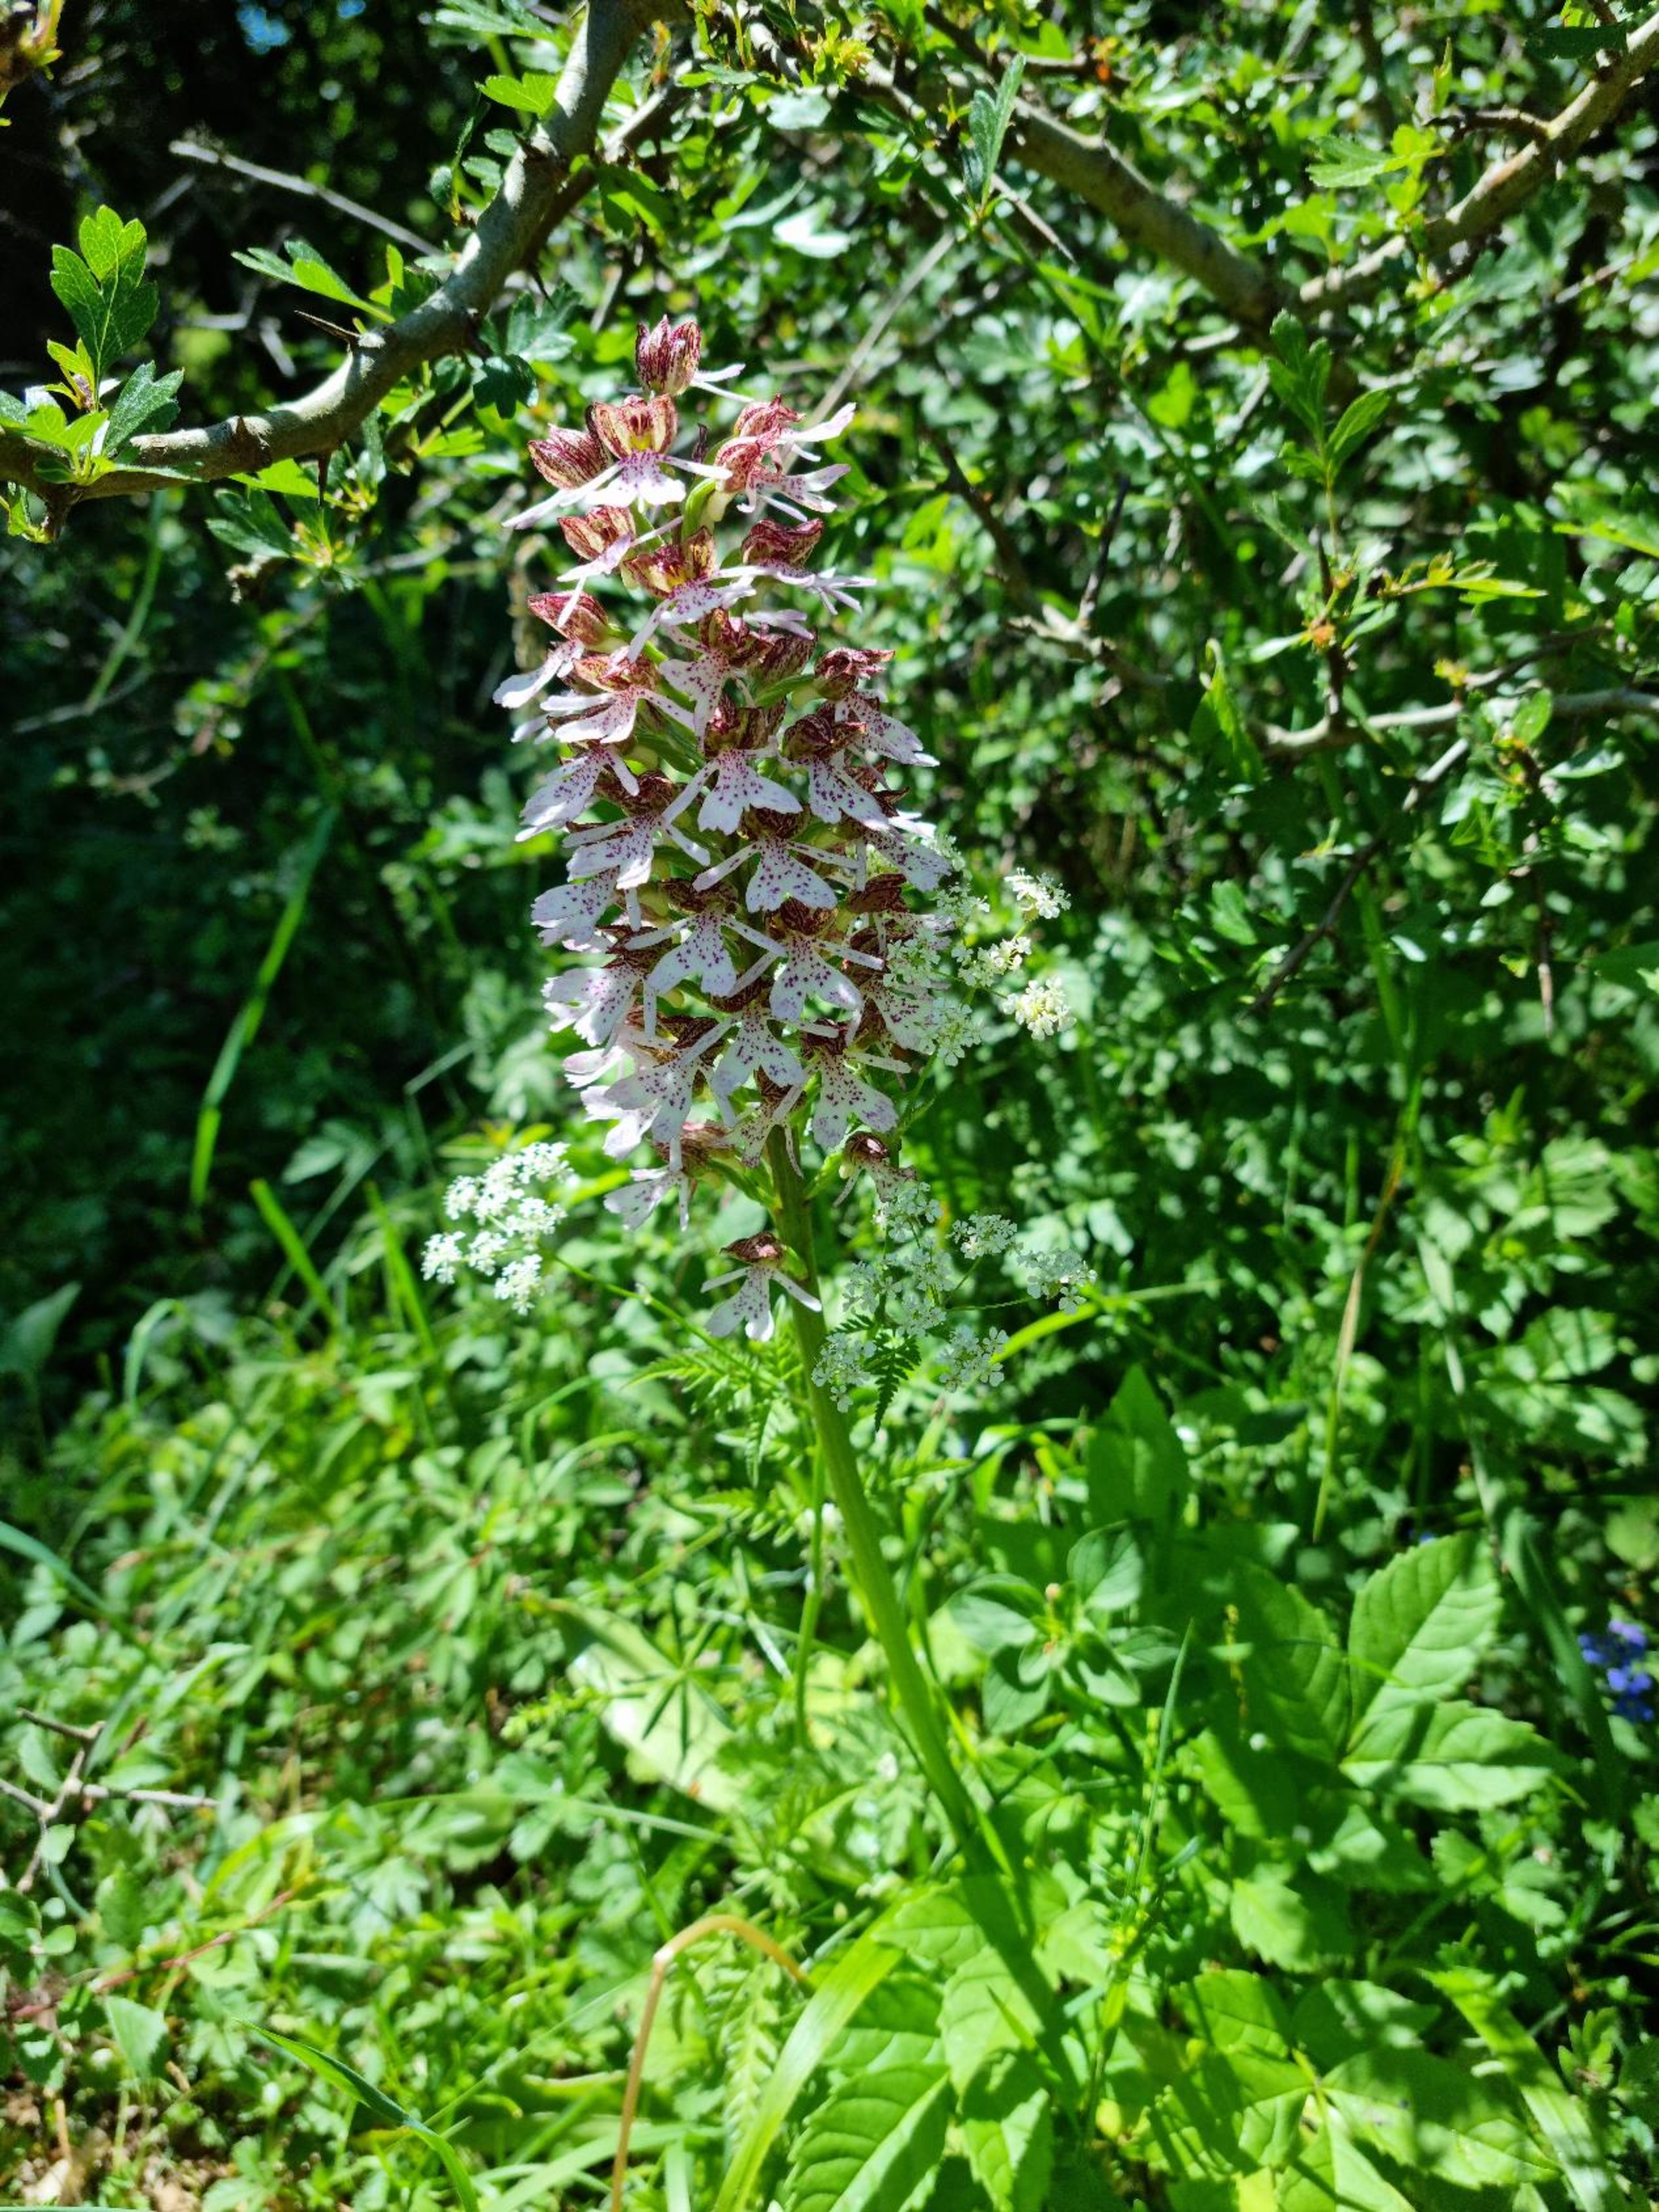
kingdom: Plantae
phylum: Tracheophyta
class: Liliopsida
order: Asparagales
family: Orchidaceae
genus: Orchis
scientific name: Orchis purpurea
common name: Stor gøgeurt
